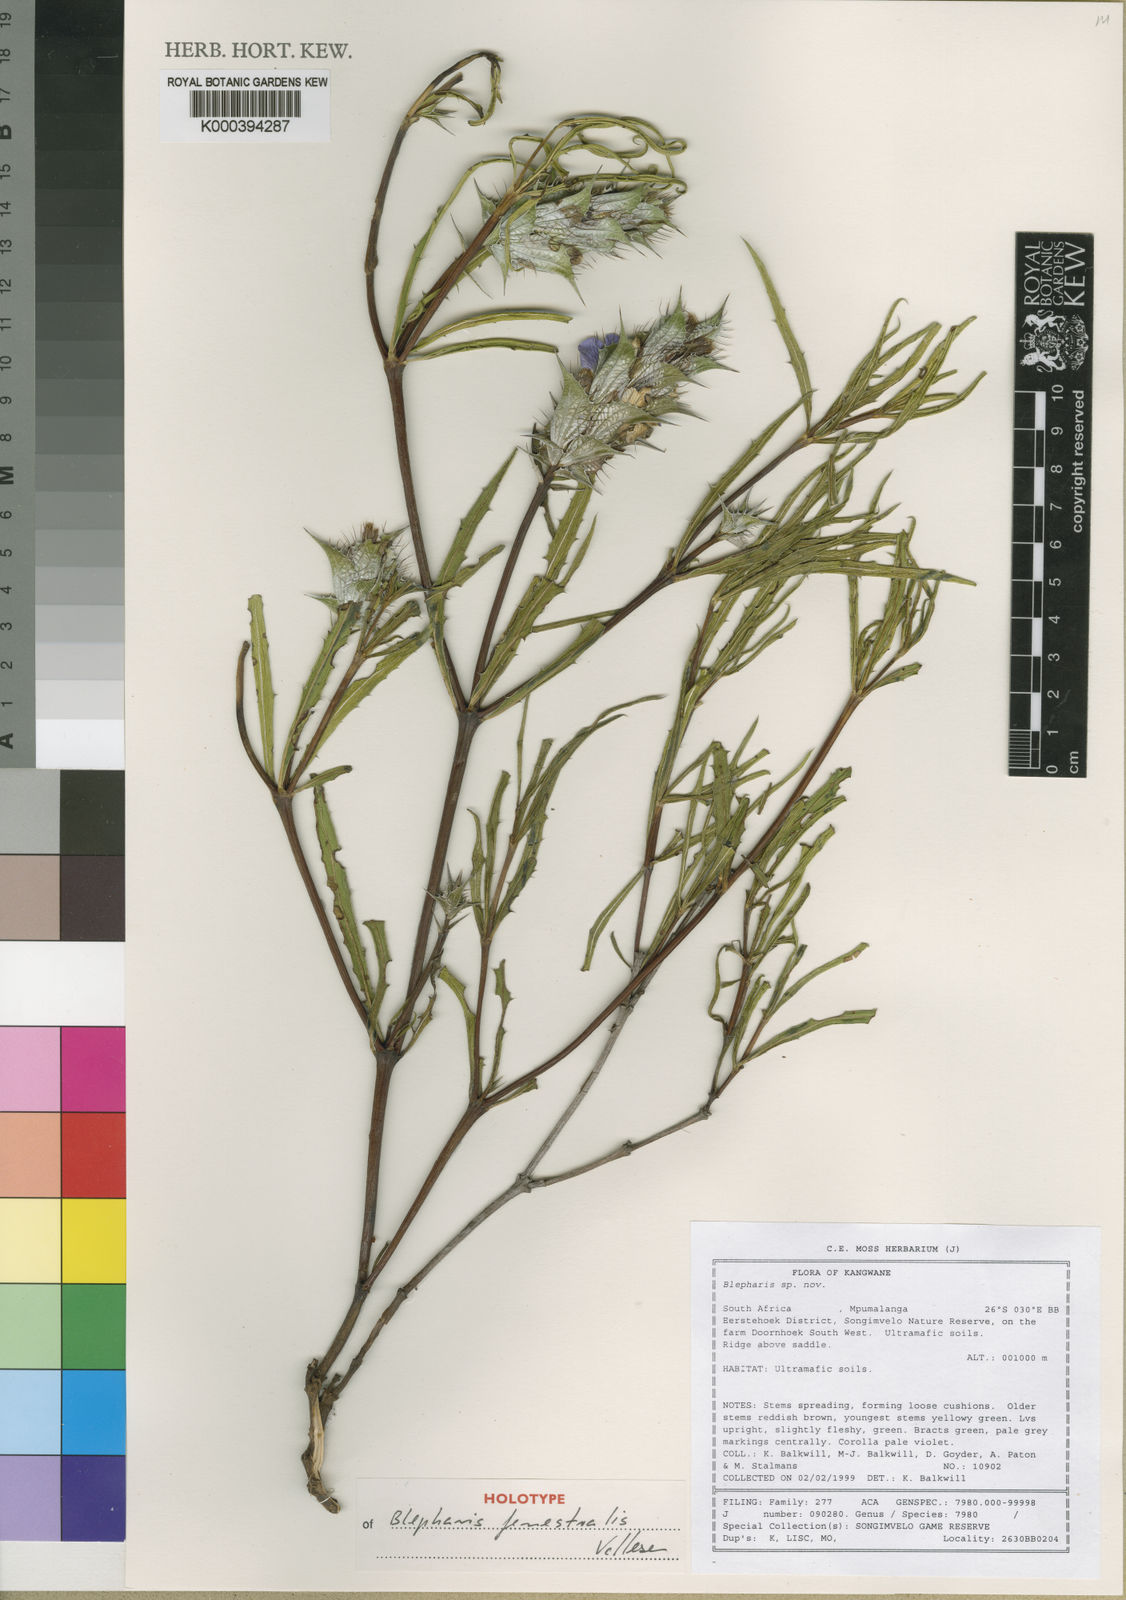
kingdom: Plantae
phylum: Tracheophyta
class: Magnoliopsida
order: Lamiales
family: Acanthaceae
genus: Blepharis
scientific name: Blepharis fenestralis
